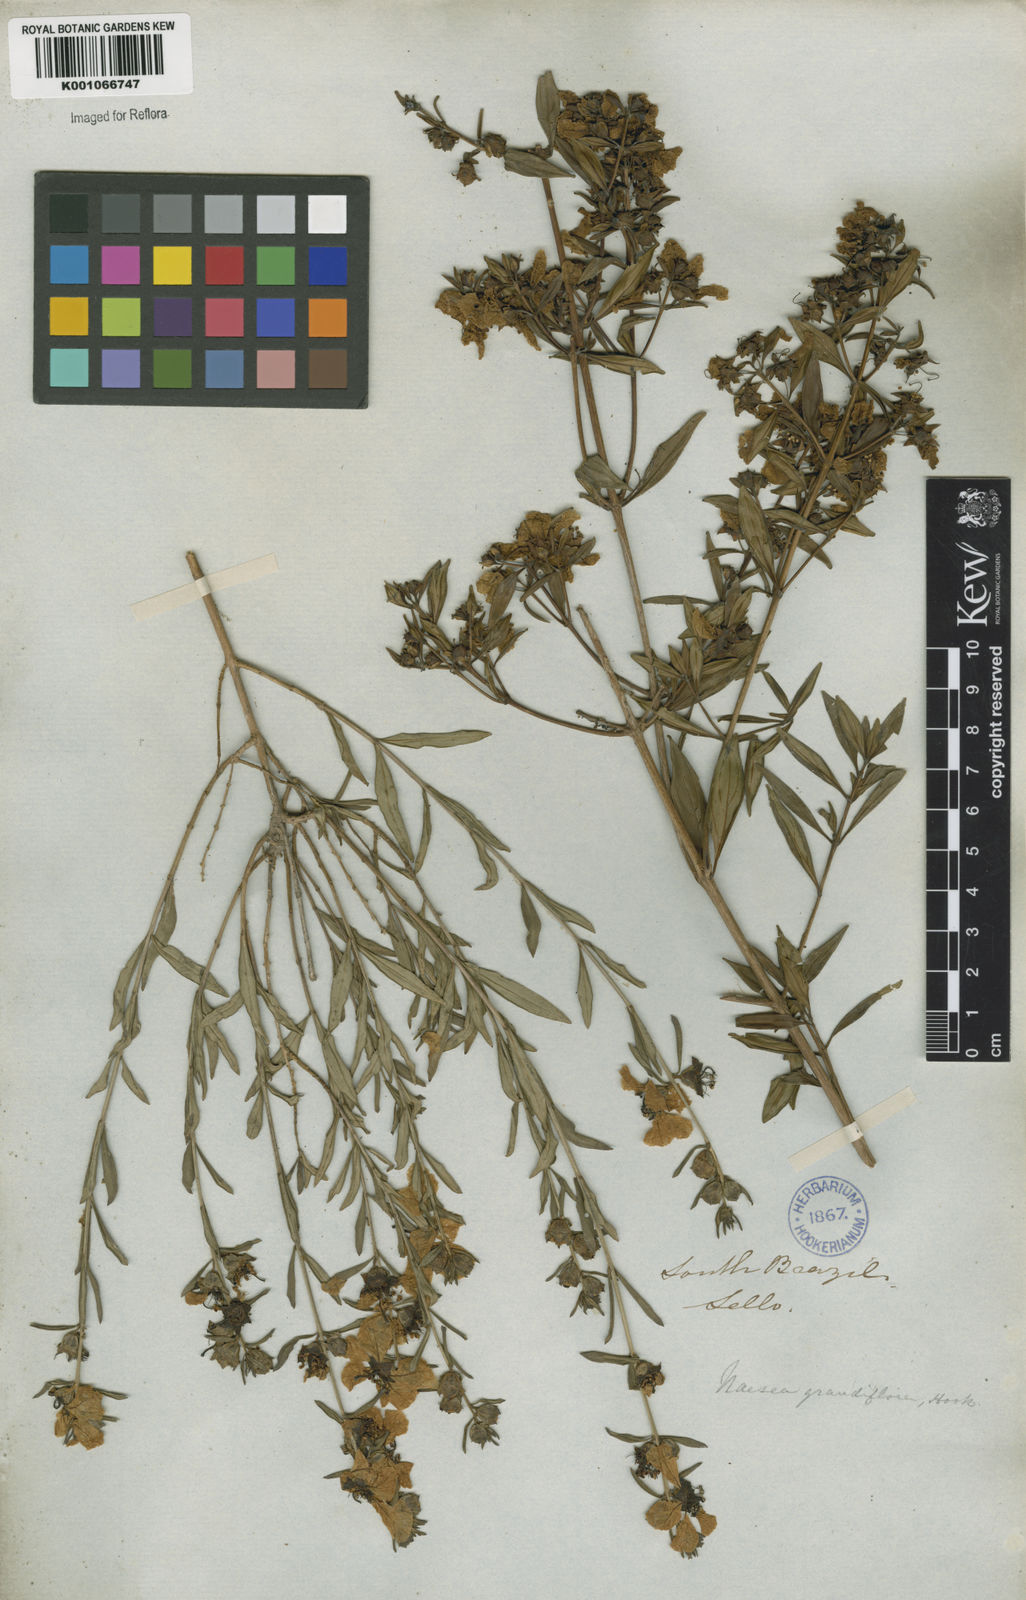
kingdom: Plantae
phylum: Tracheophyta
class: Magnoliopsida
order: Myrtales
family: Lythraceae
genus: Heimia
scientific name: Heimia salicifolia
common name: Willow-leaf heimia
